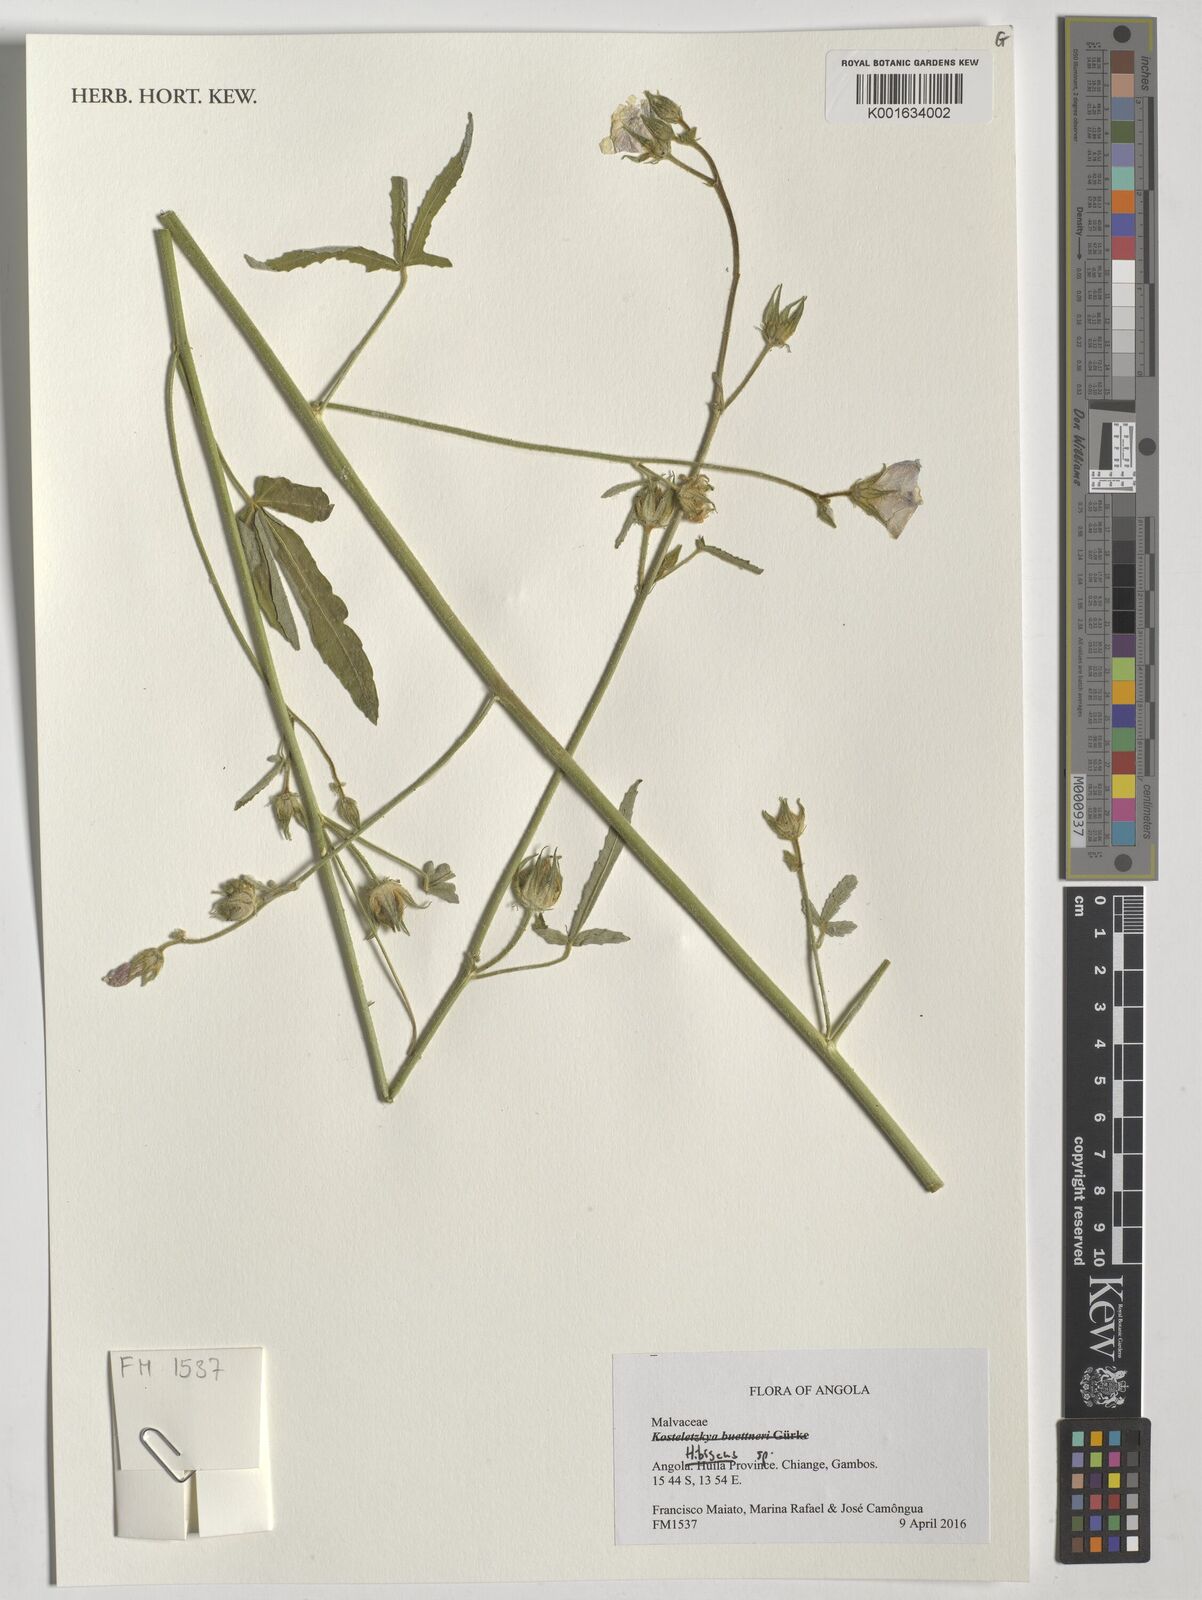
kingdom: Plantae
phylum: Tracheophyta
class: Magnoliopsida
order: Malvales
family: Malvaceae
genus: Hibiscus
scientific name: Hibiscus
